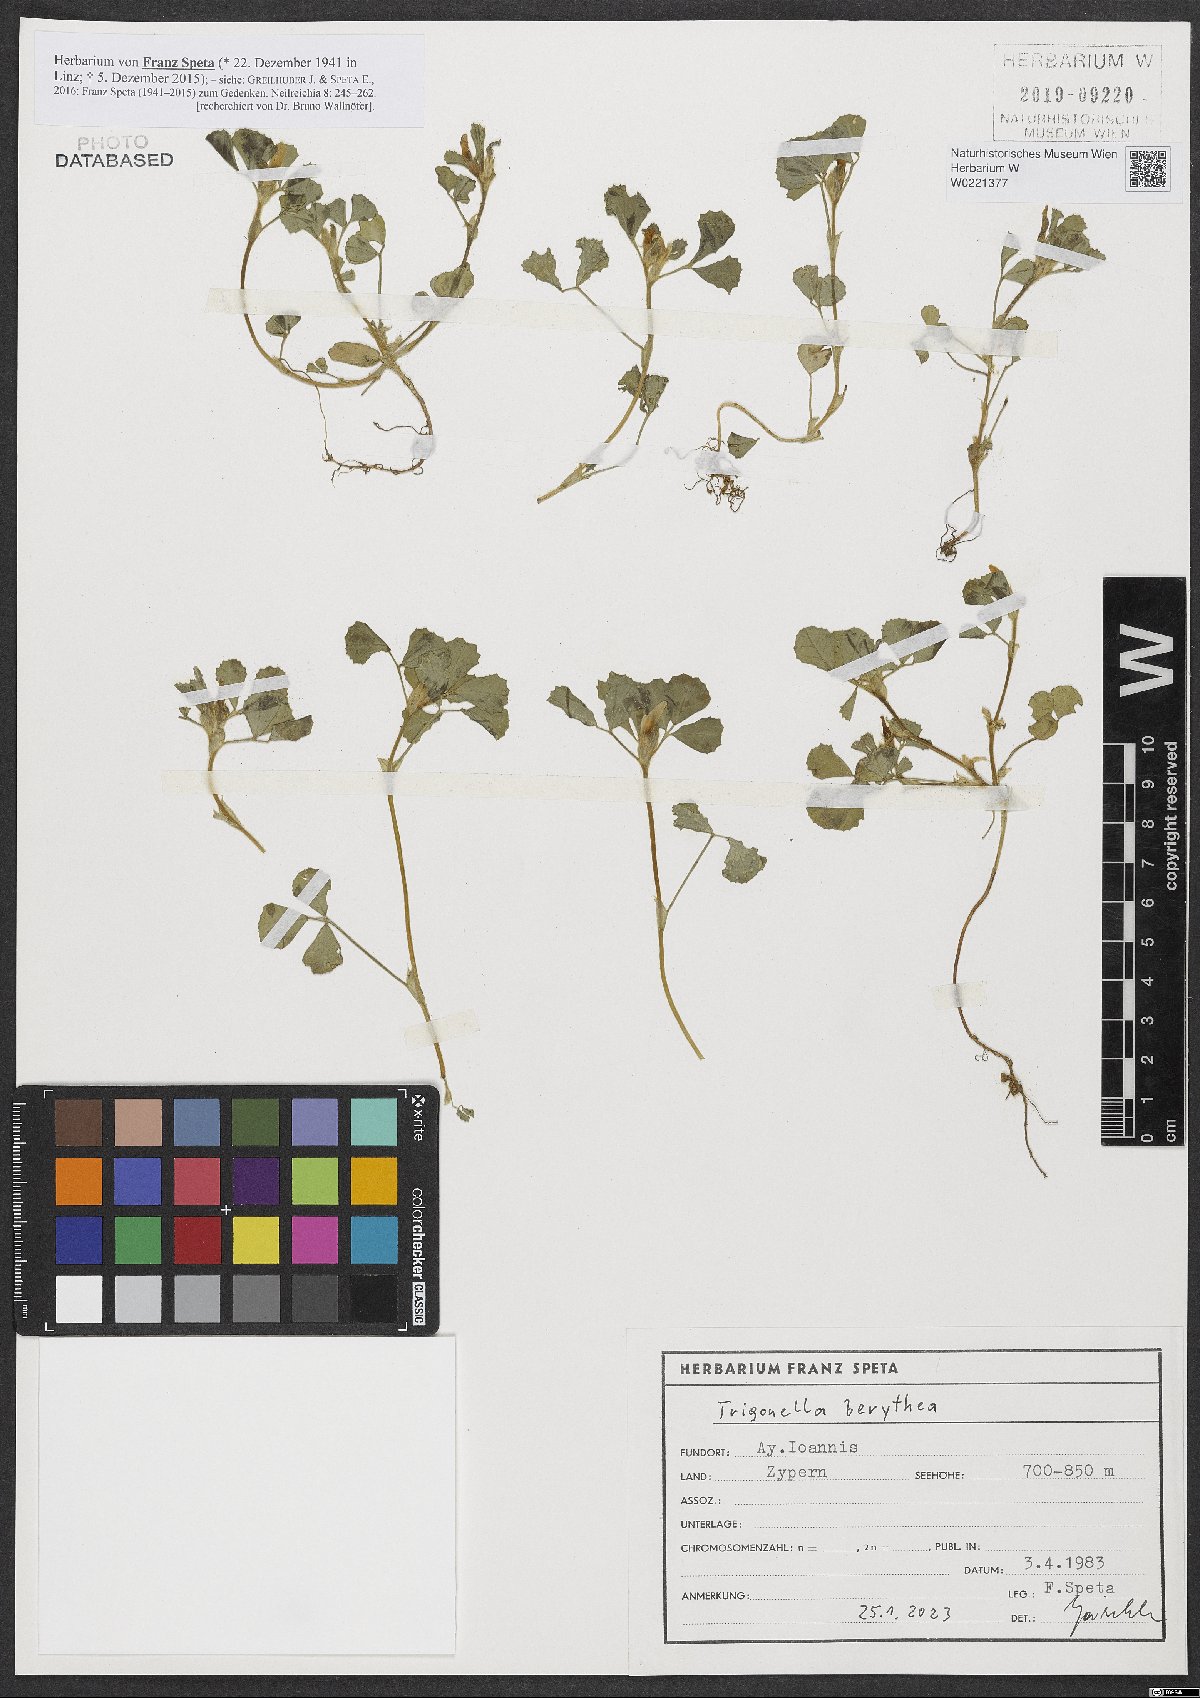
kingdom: Plantae
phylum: Tracheophyta
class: Magnoliopsida
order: Fabales
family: Fabaceae
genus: Trigonella
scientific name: Trigonella berythea
